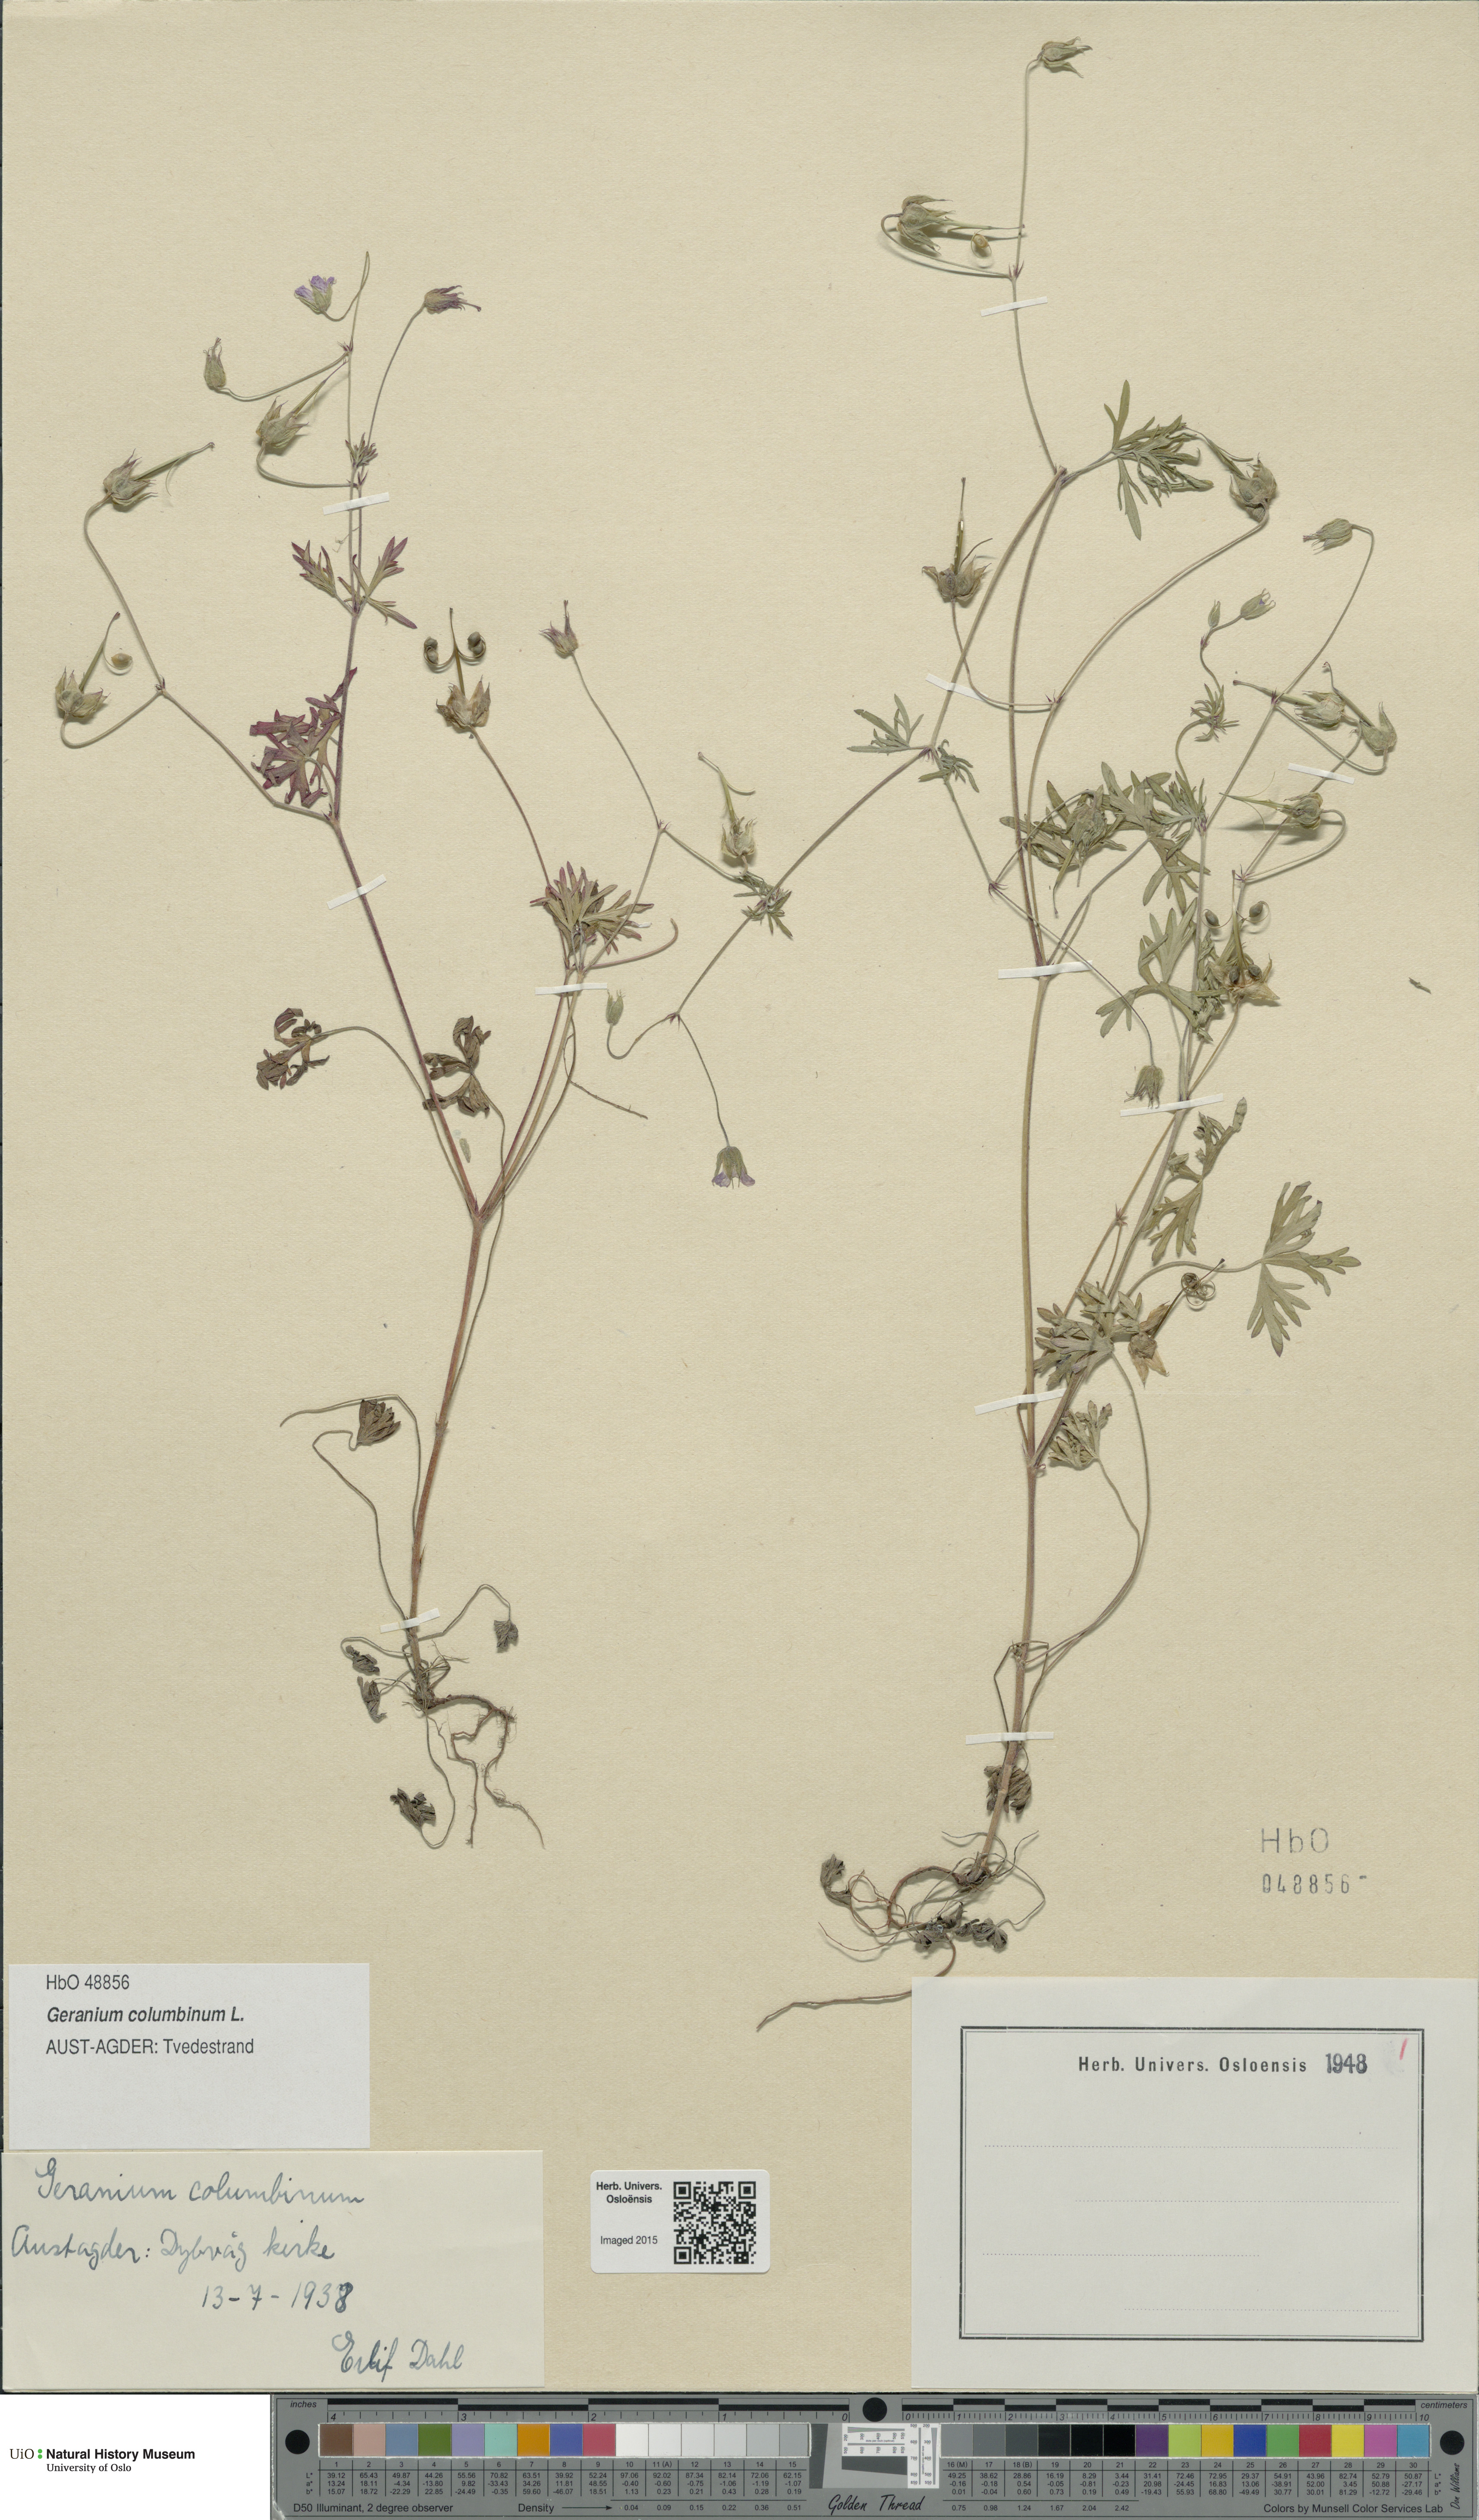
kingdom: Plantae
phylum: Tracheophyta
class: Magnoliopsida
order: Geraniales
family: Geraniaceae
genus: Geranium
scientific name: Geranium columbinum
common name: Long-stalked crane's-bill
